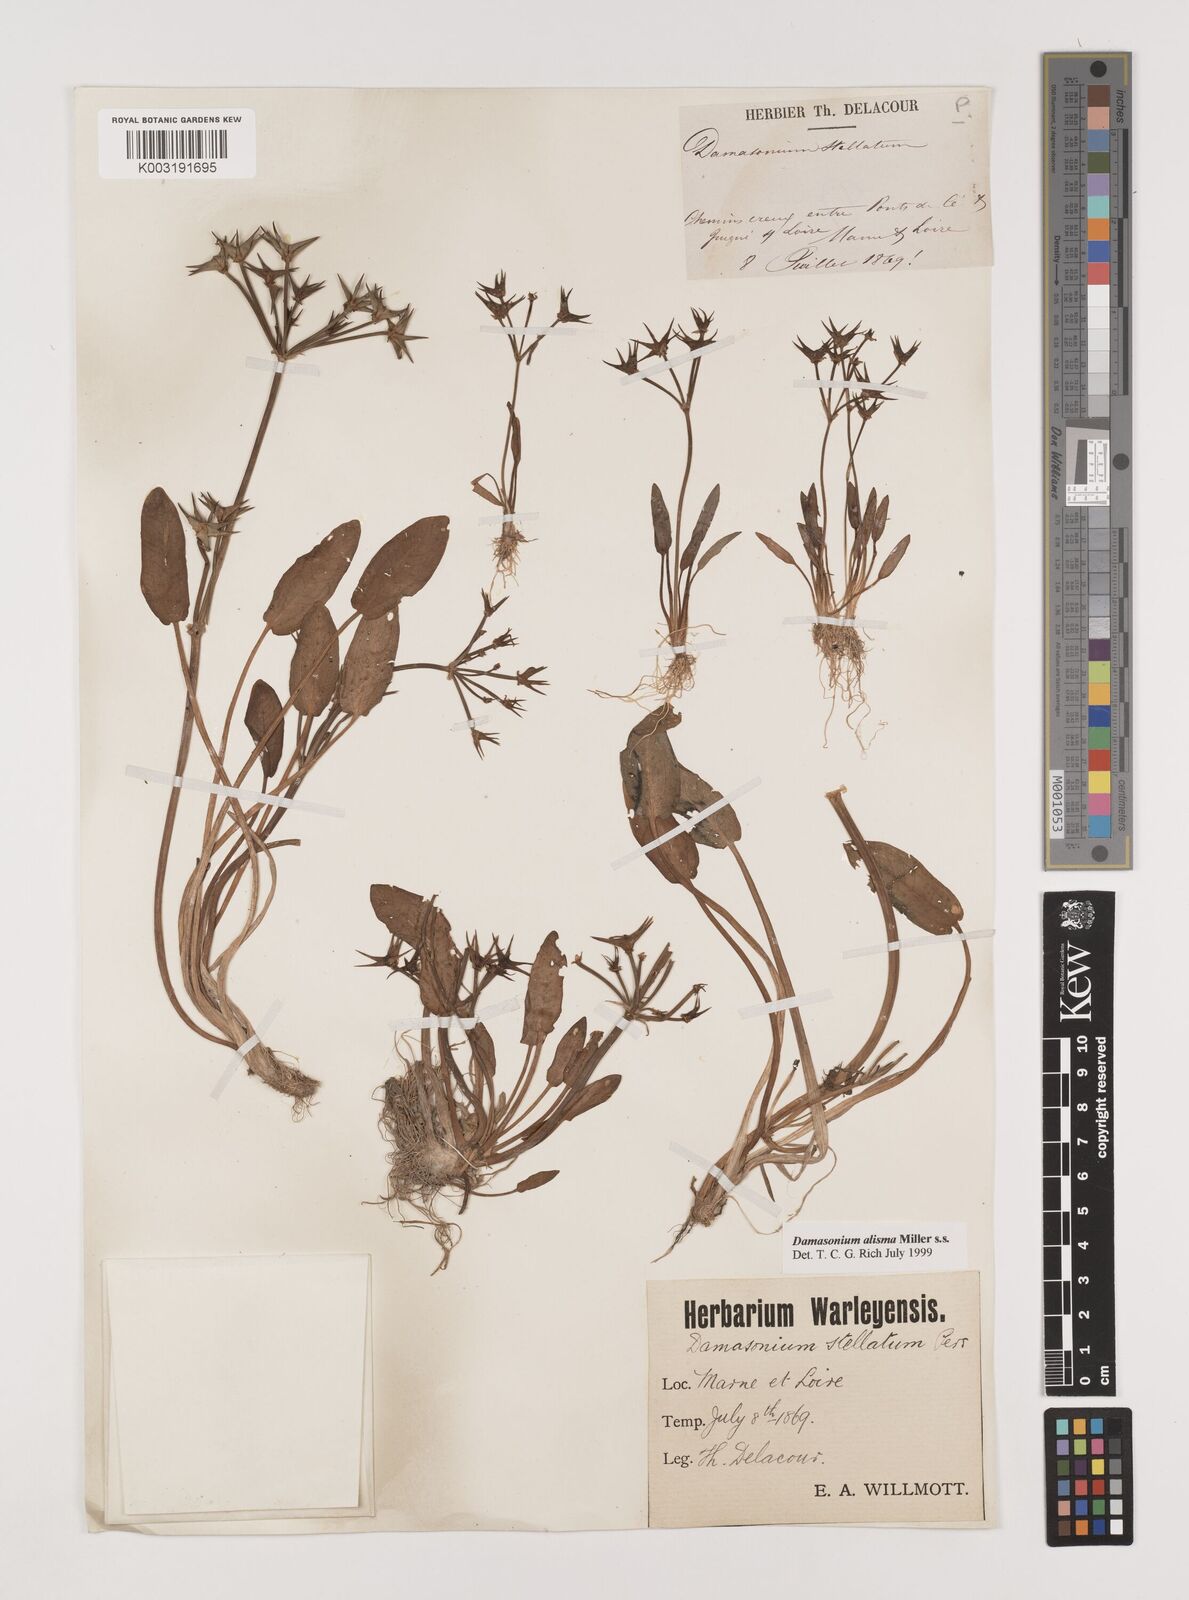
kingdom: Plantae
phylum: Tracheophyta
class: Liliopsida
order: Alismatales
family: Alismataceae
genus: Damasonium
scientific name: Damasonium alisma
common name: Starfruit
